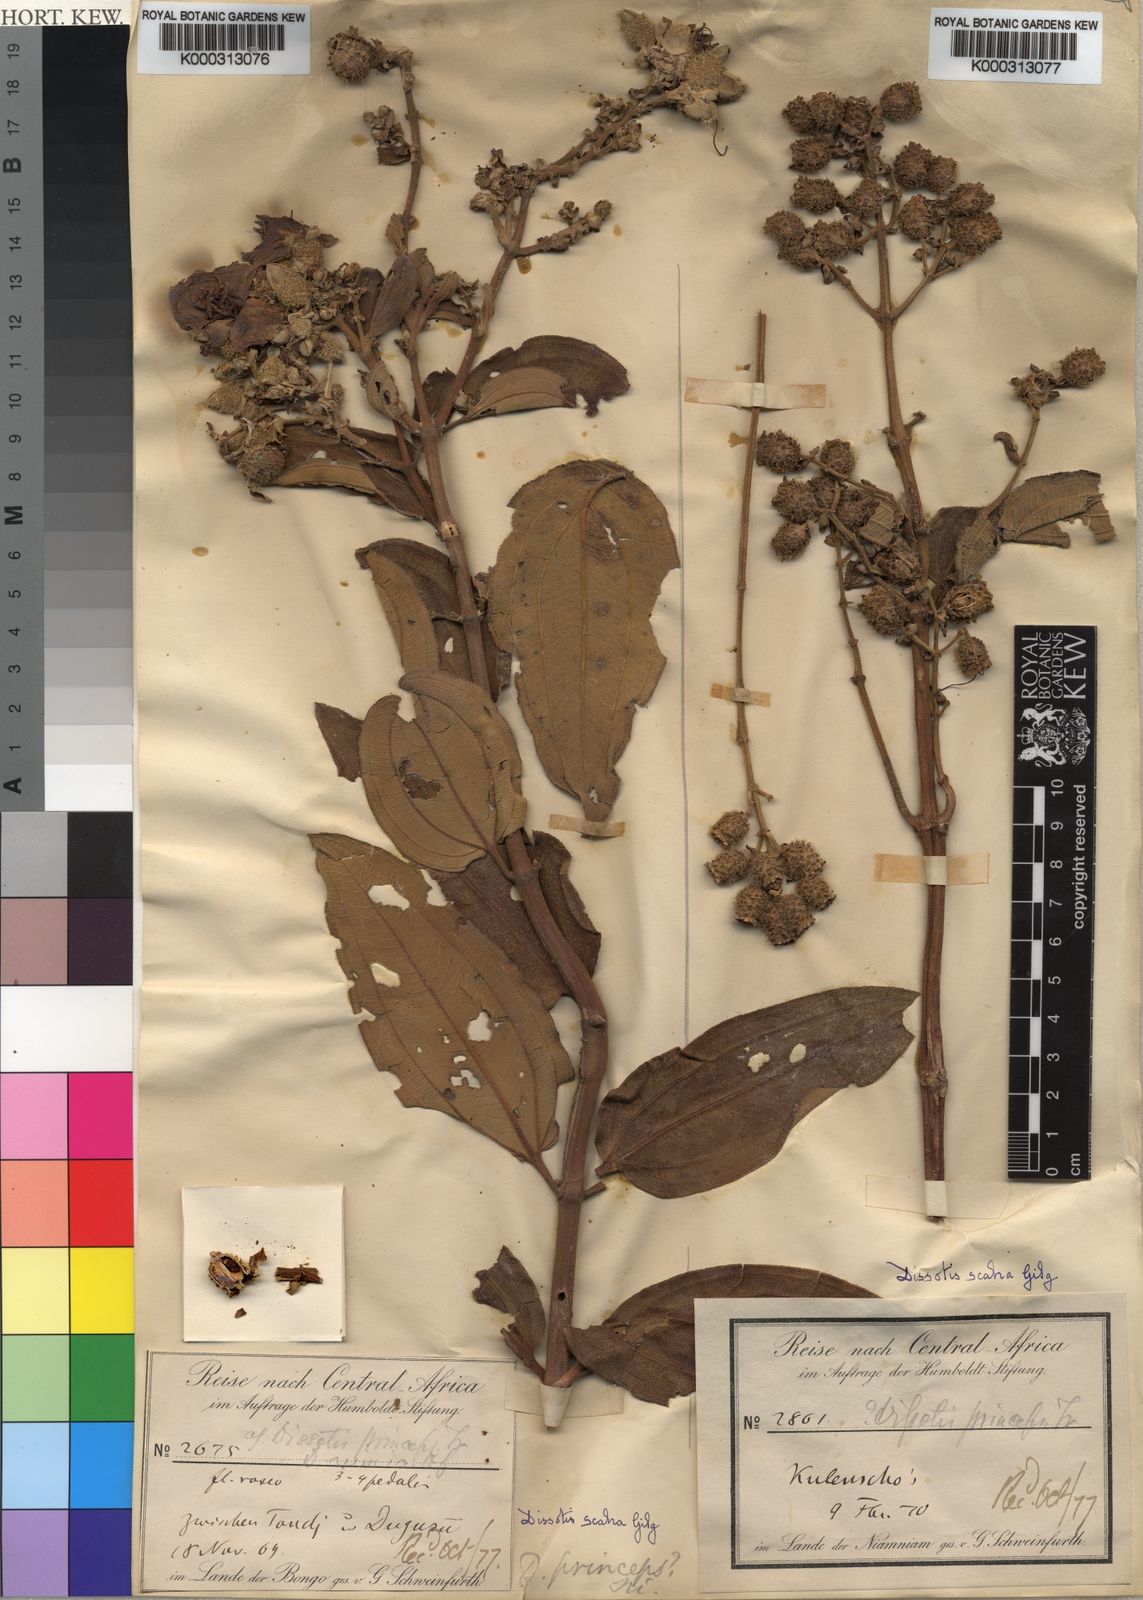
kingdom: Plantae
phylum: Tracheophyta
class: Magnoliopsida
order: Myrtales
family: Melastomataceae
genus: Rosettea
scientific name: Rosettea scabra
